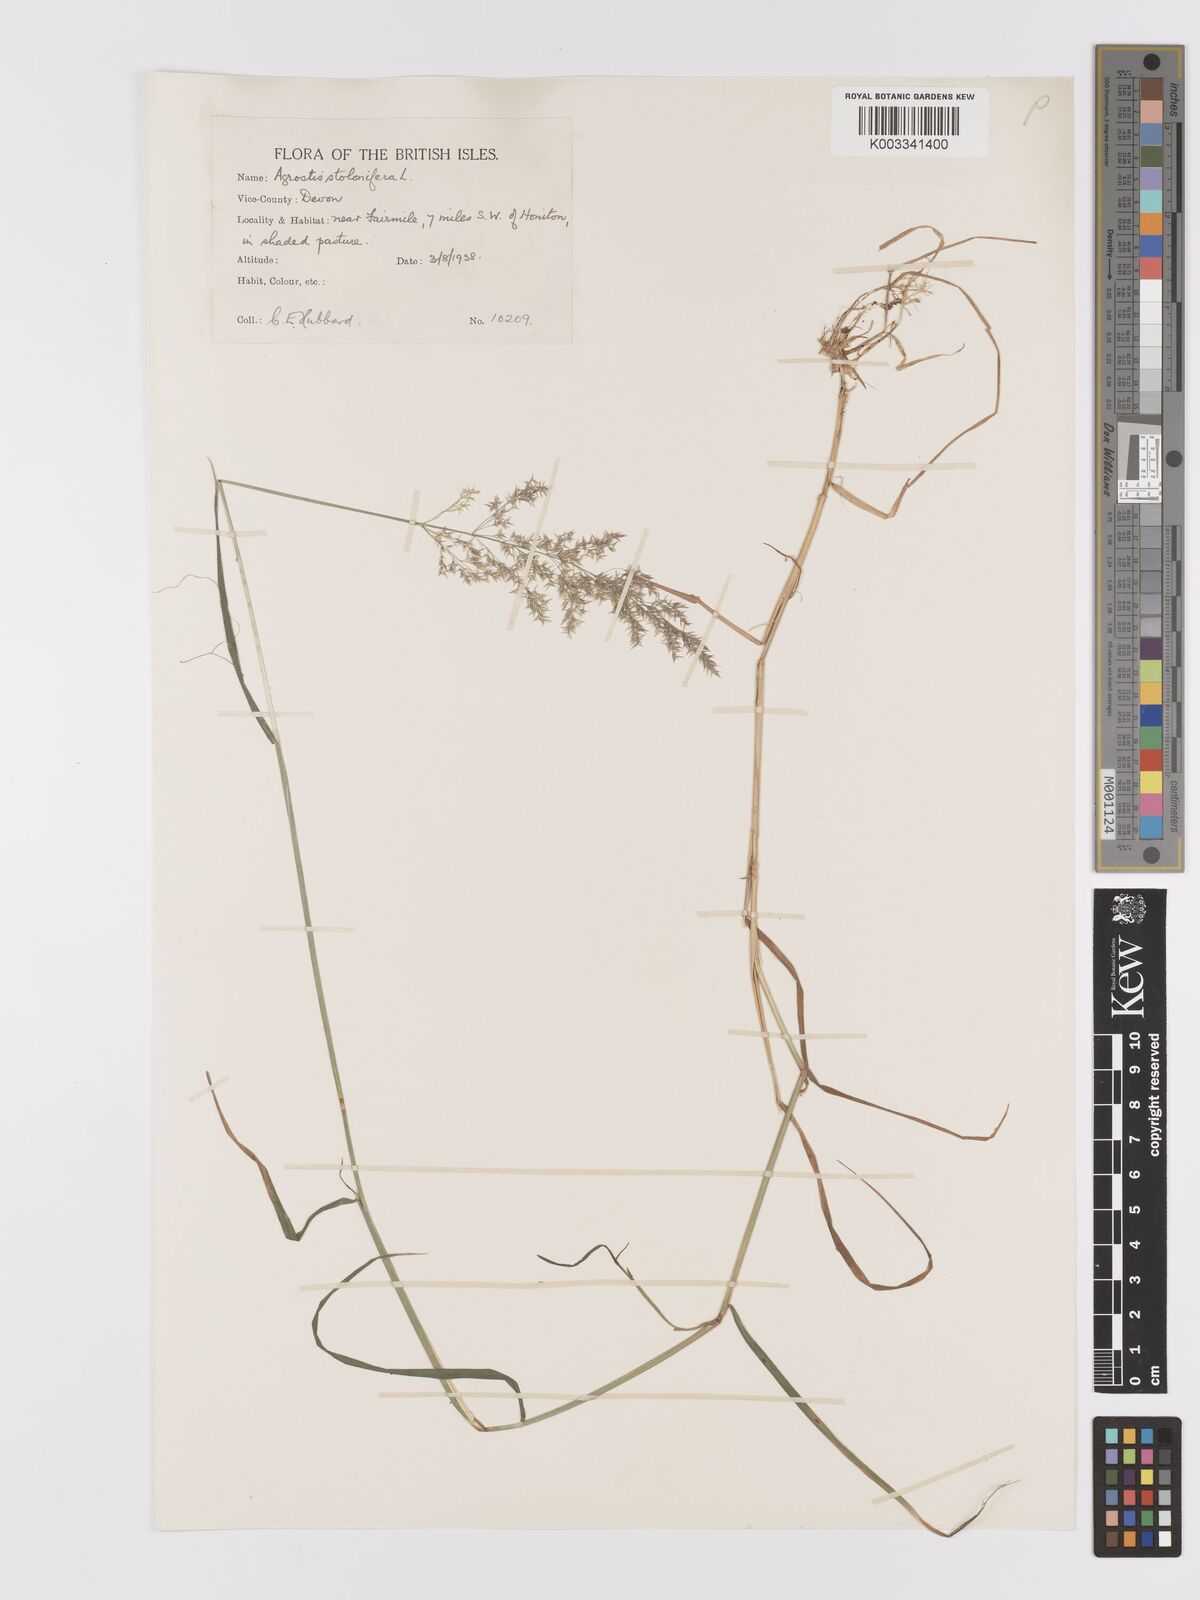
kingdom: Plantae
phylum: Tracheophyta
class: Liliopsida
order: Poales
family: Poaceae
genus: Agrostis
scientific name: Agrostis stolonifera
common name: Creeping bentgrass
